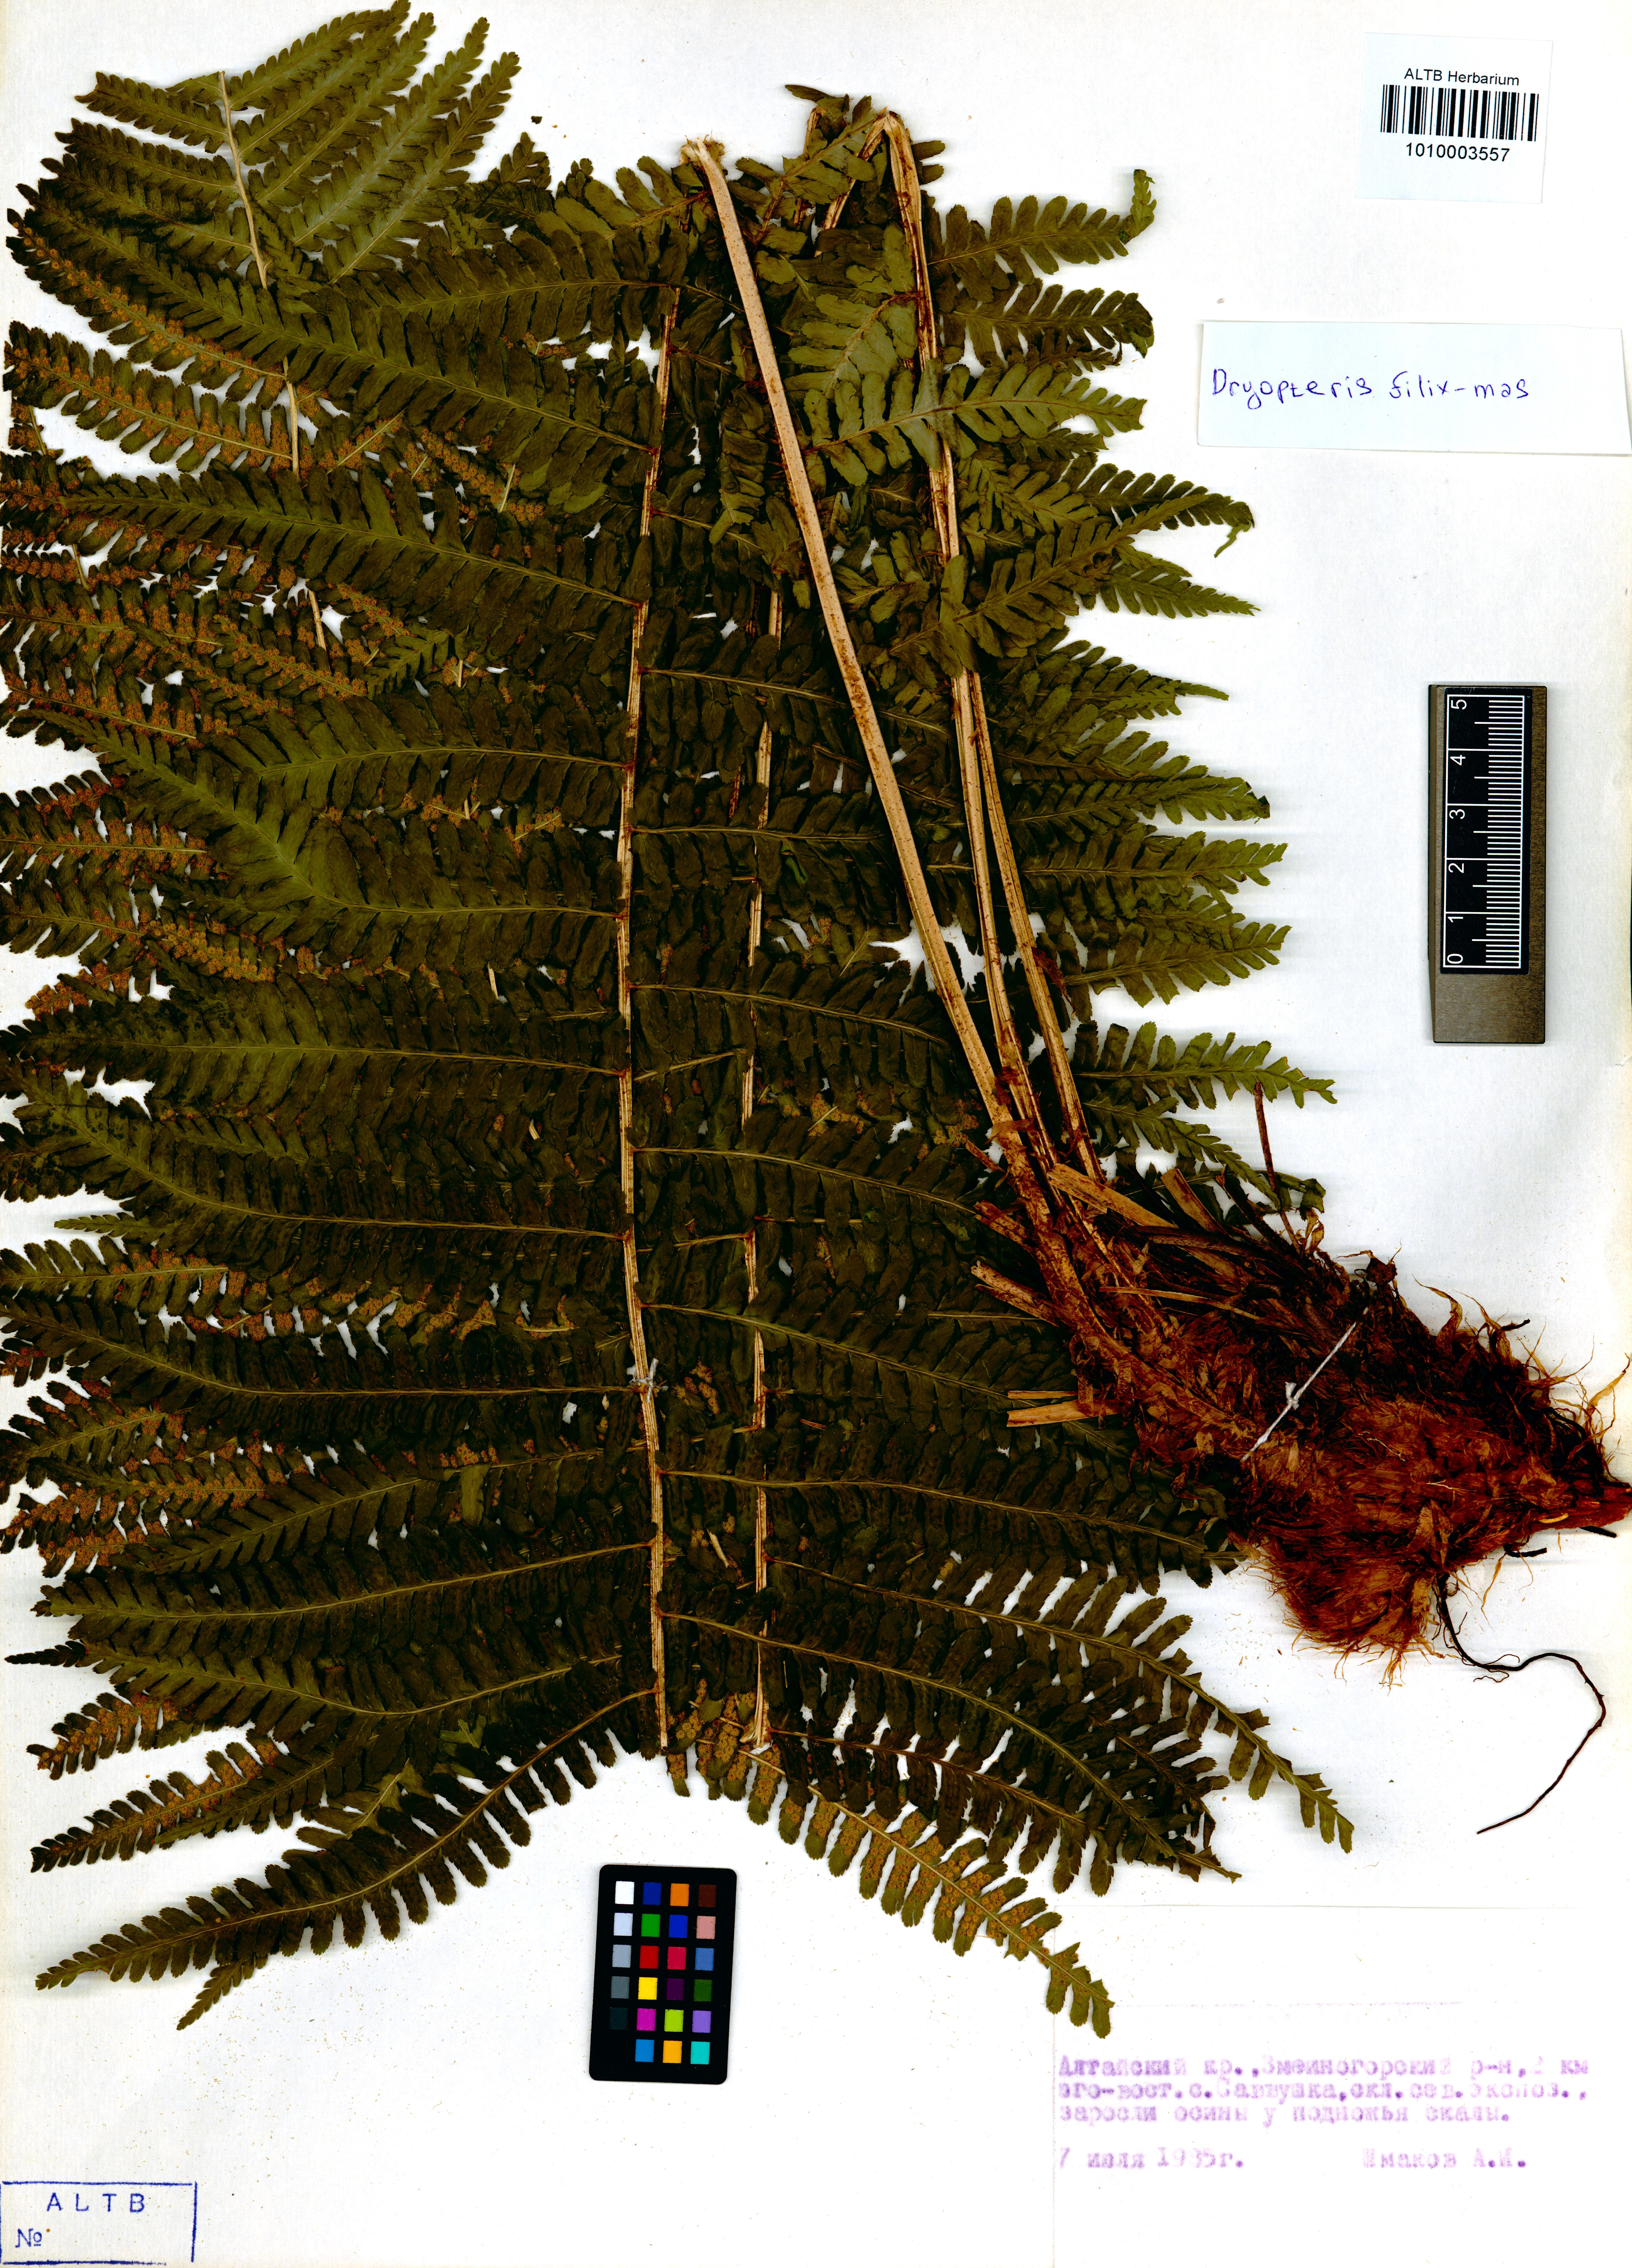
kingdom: Plantae
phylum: Tracheophyta
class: Polypodiopsida
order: Polypodiales
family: Dryopteridaceae
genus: Dryopteris
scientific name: Dryopteris filix-mas
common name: Male fern
